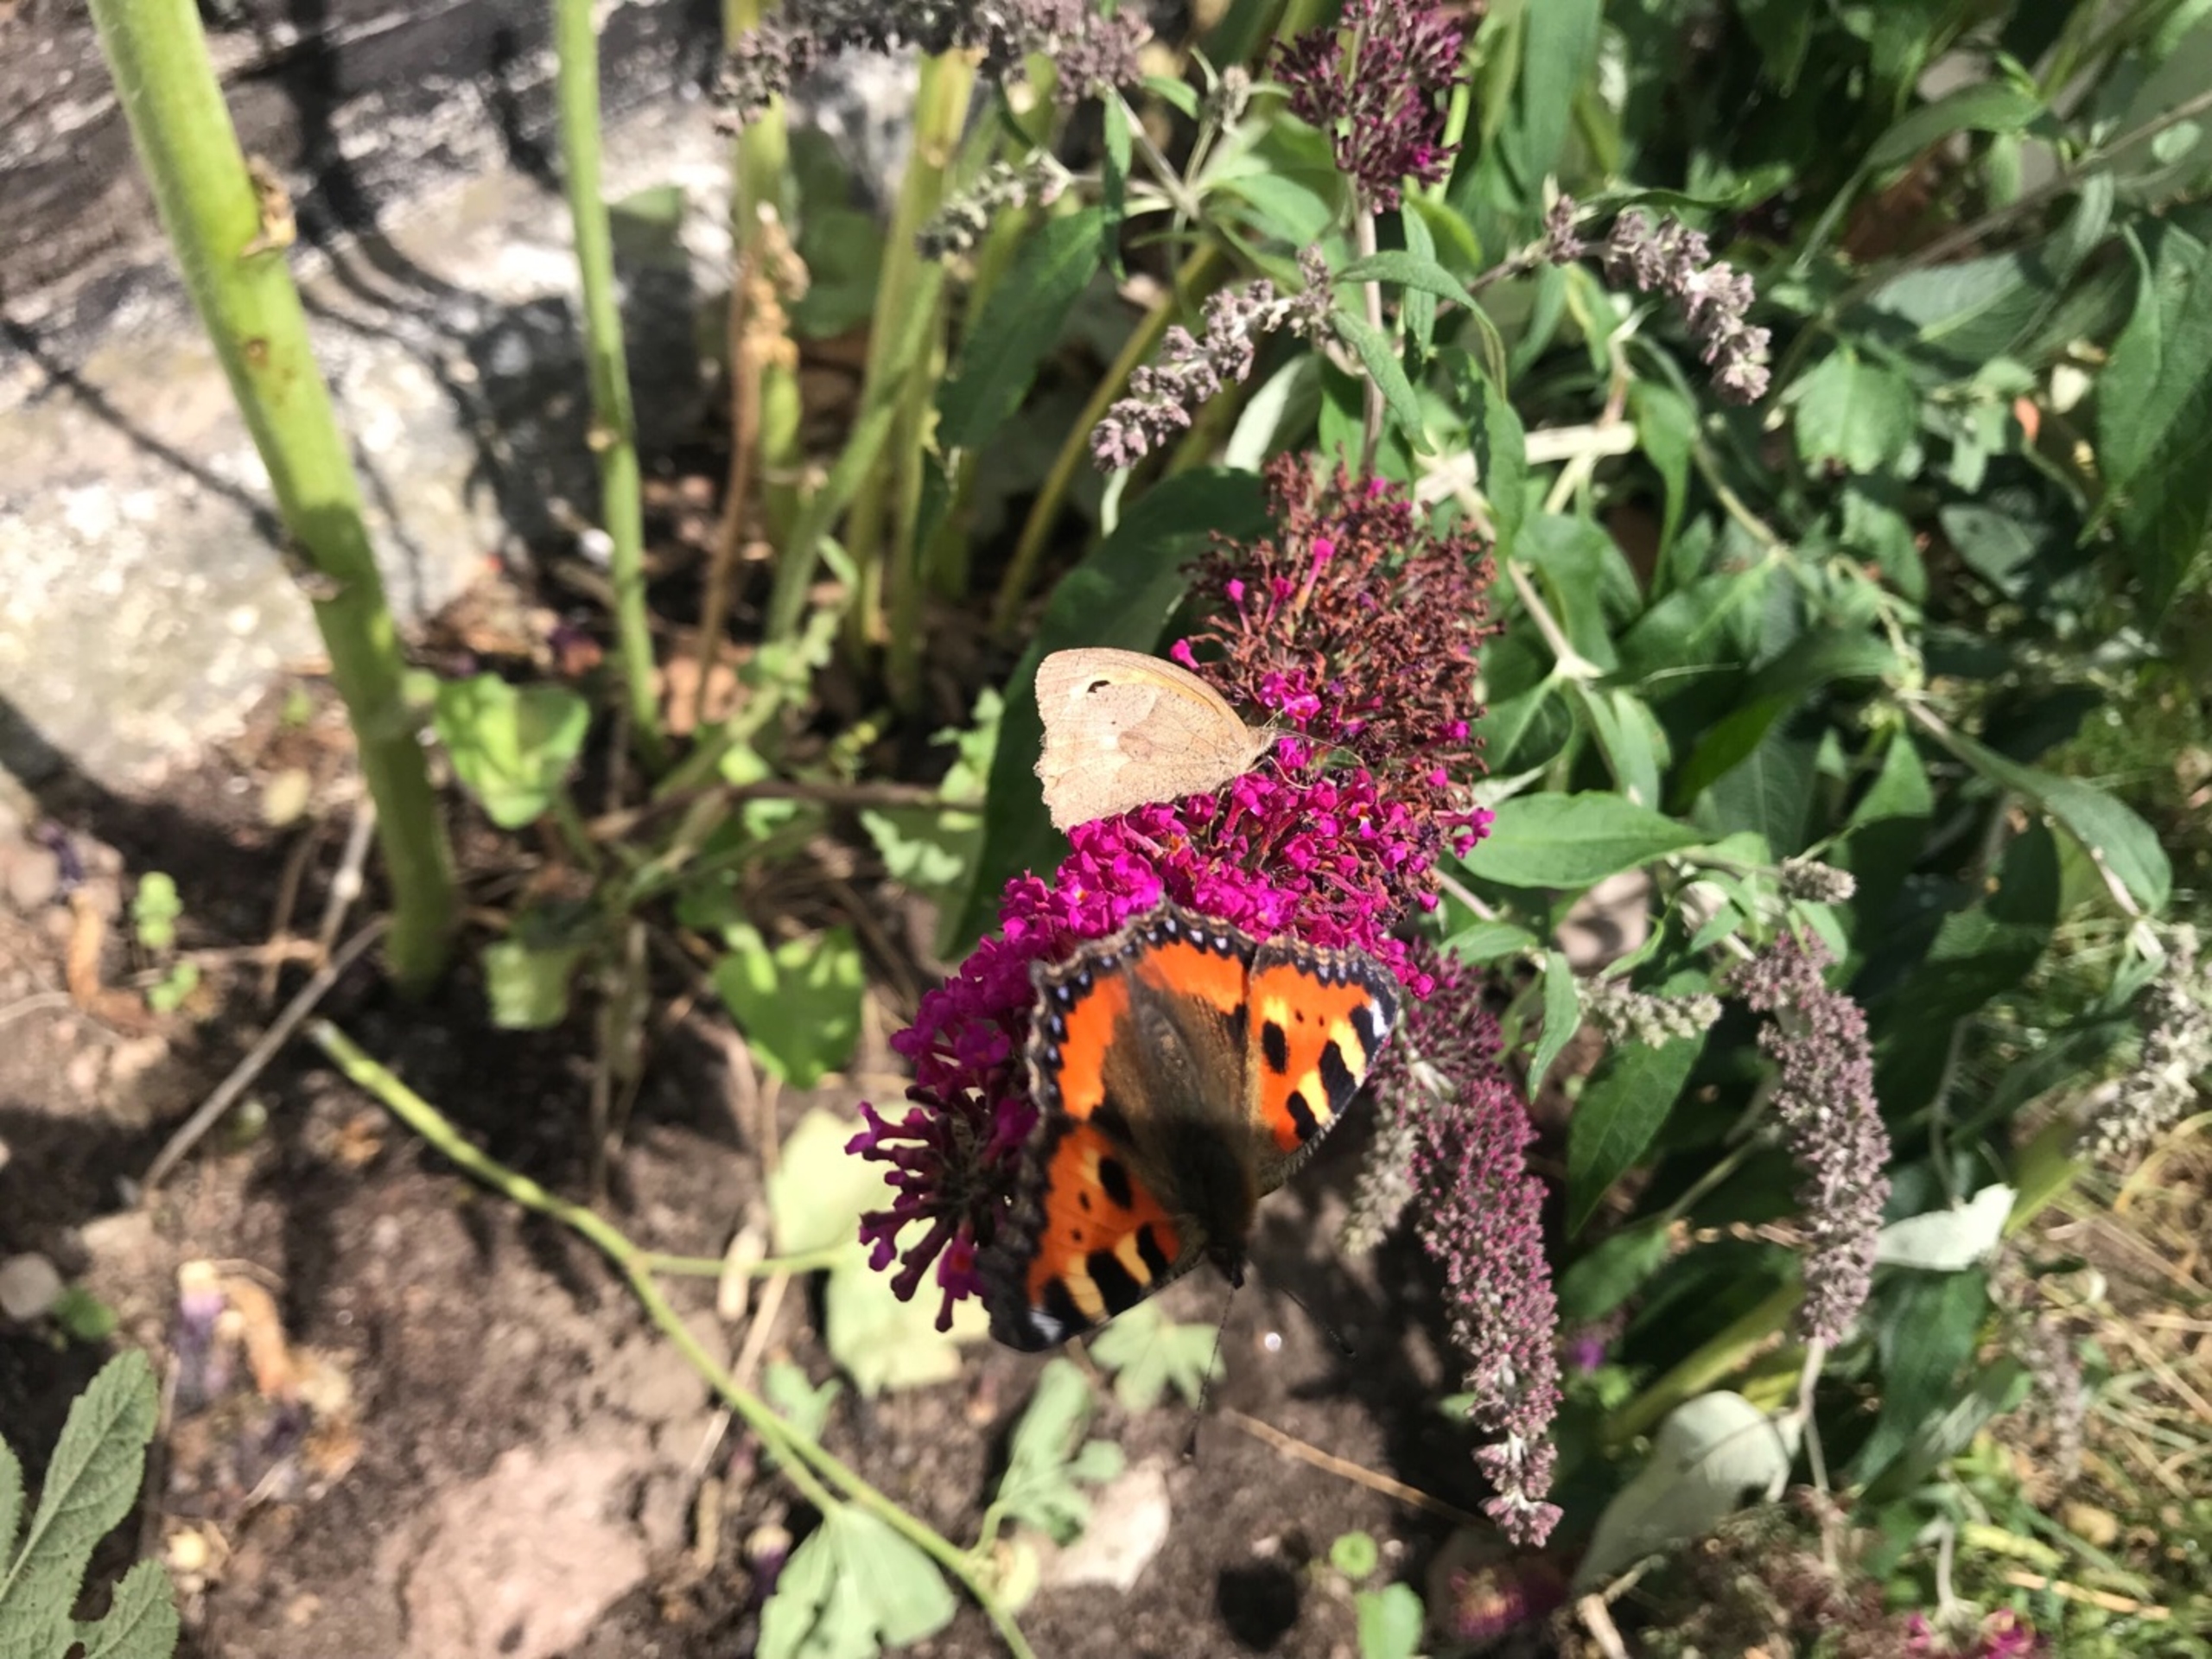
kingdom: Animalia
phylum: Arthropoda
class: Insecta
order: Lepidoptera
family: Nymphalidae
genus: Maniola
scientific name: Maniola jurtina
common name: Græsrandøje
